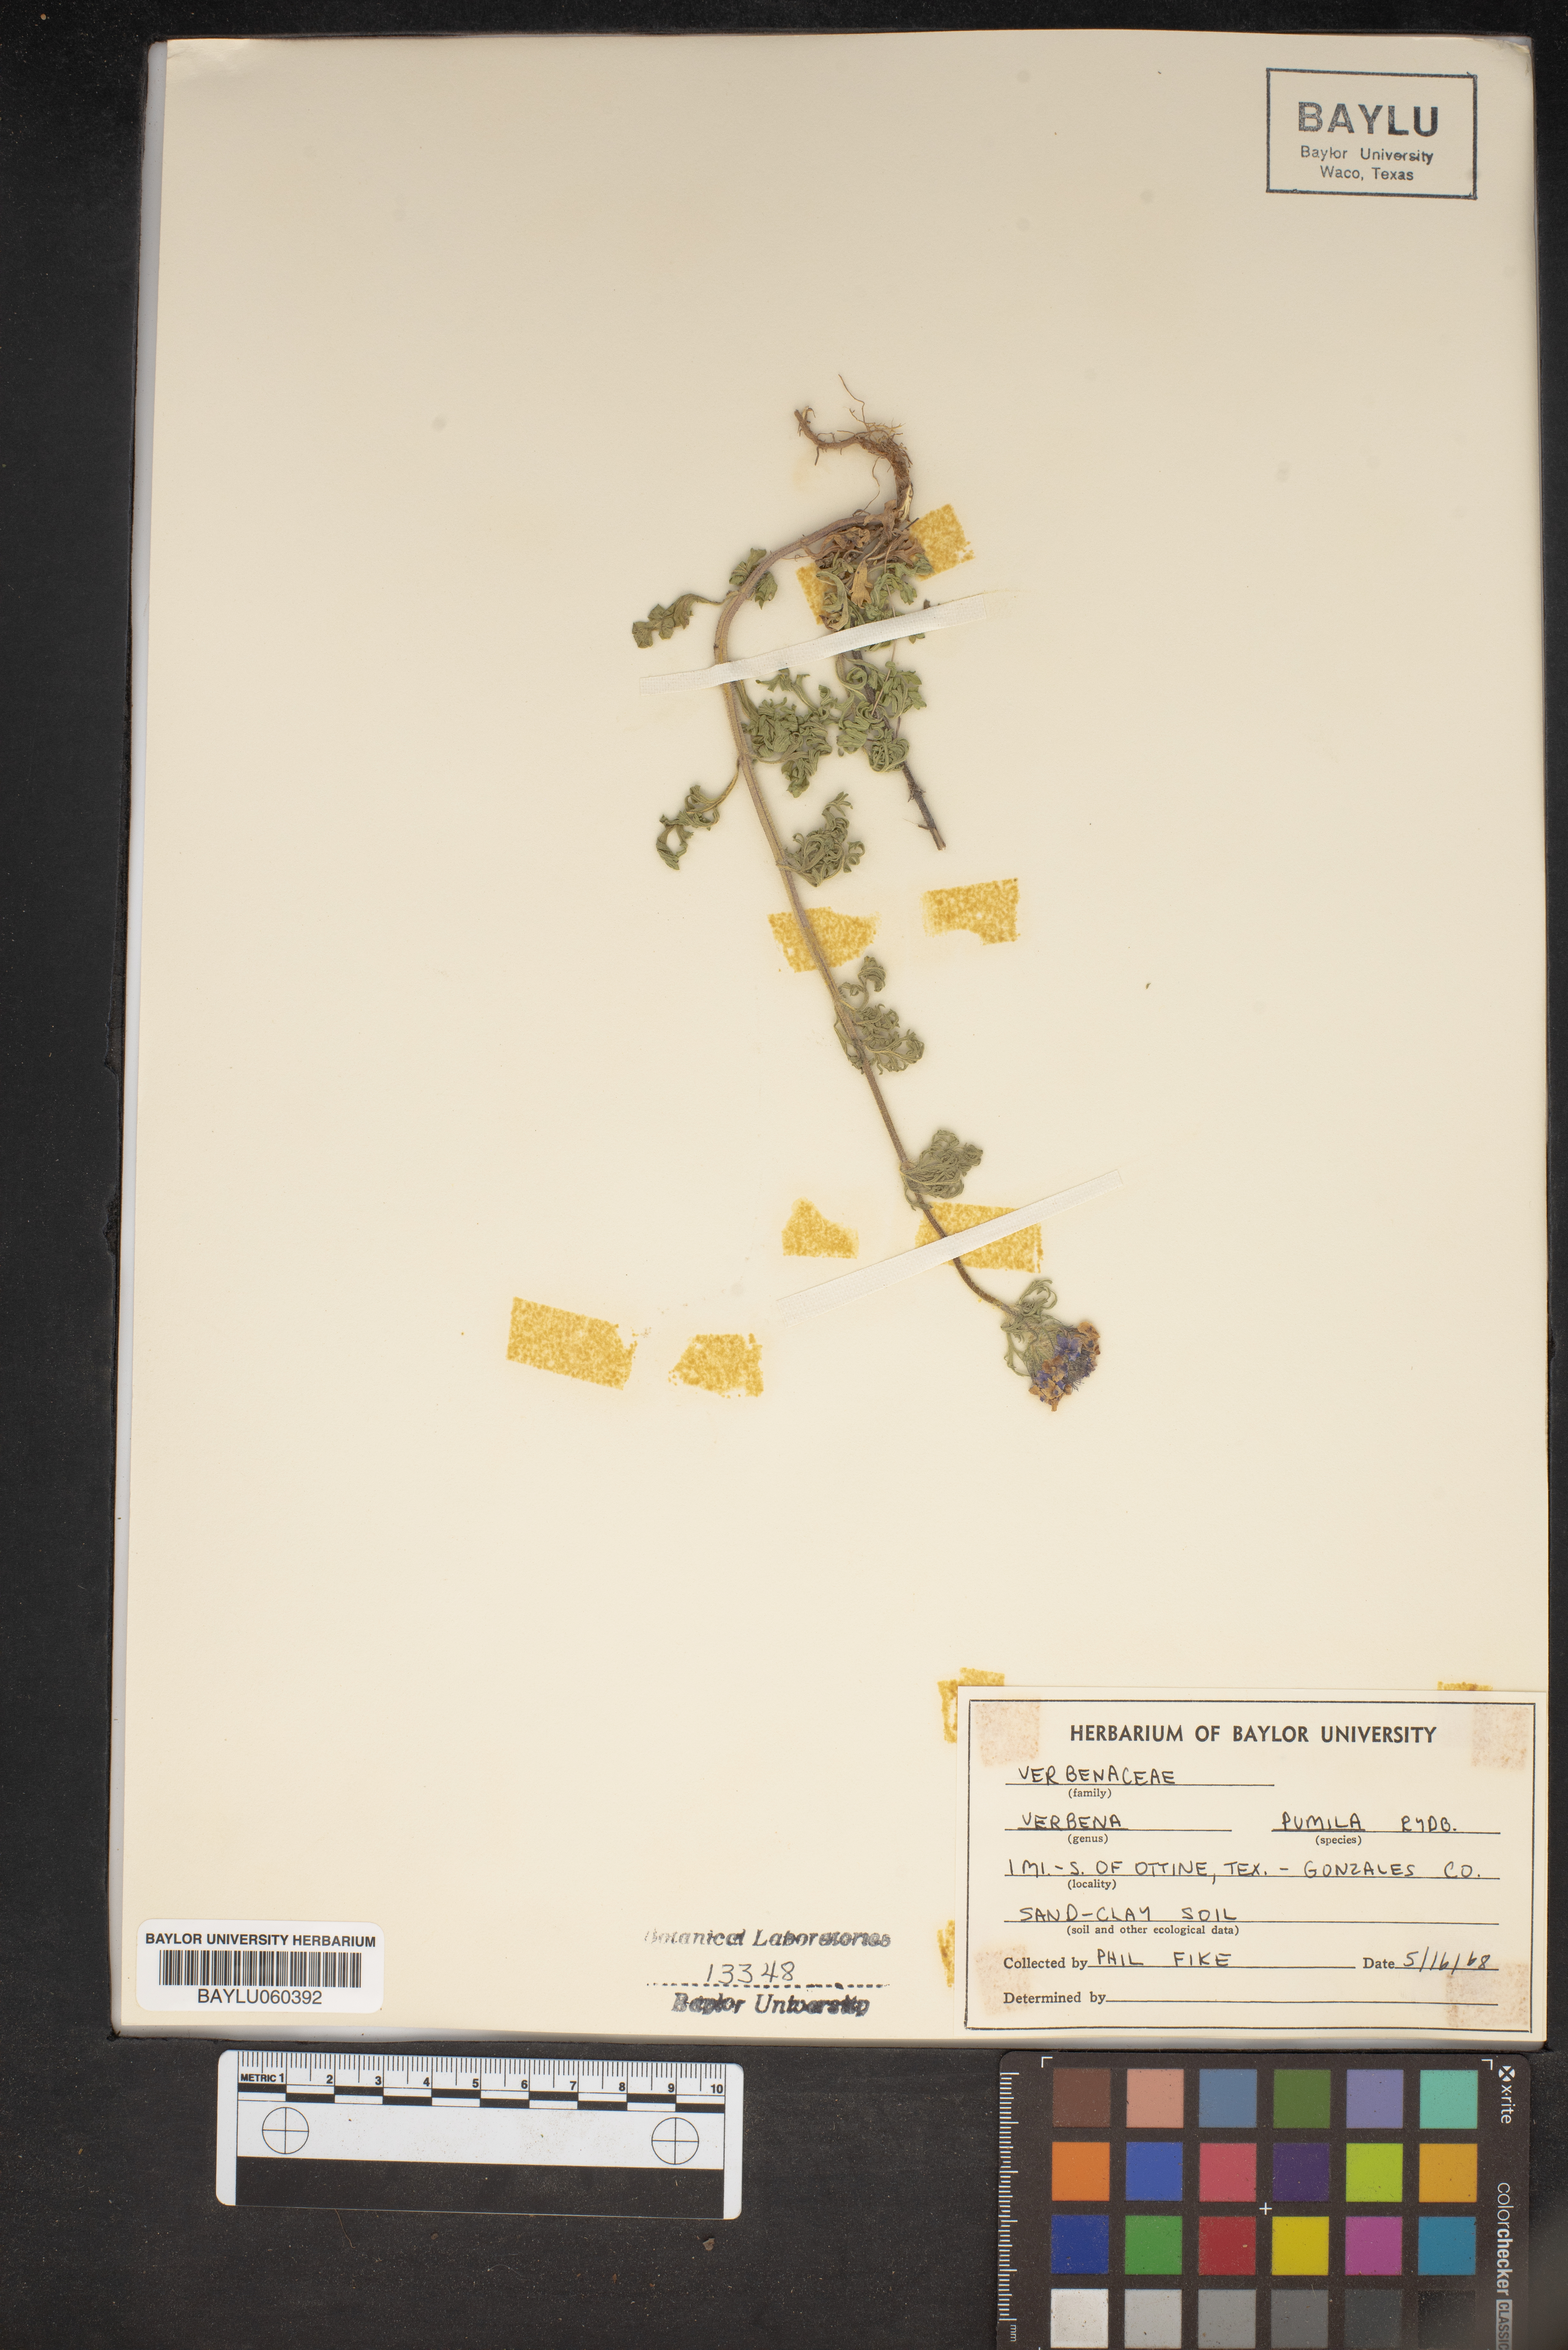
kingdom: Plantae
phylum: Tracheophyta
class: Magnoliopsida
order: Lamiales
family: Verbenaceae
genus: Verbena
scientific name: Verbena pumila
